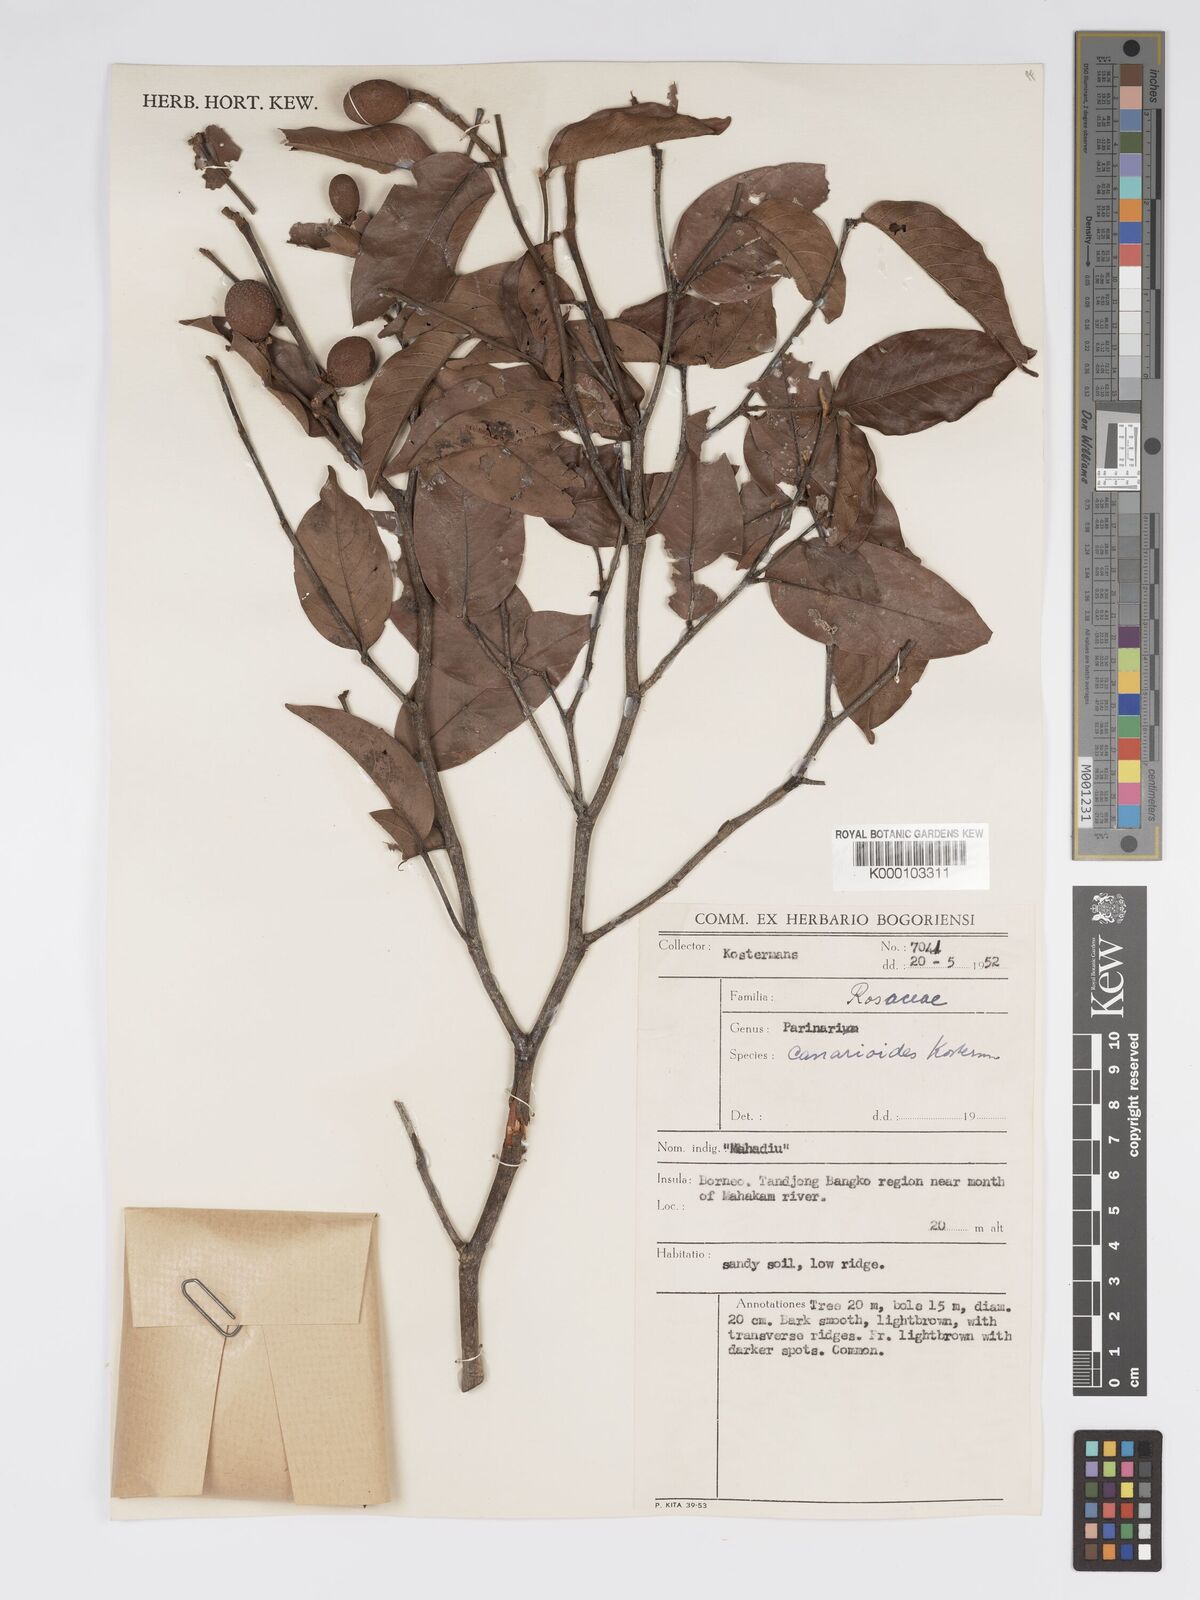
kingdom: Plantae
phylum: Tracheophyta
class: Magnoliopsida
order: Malpighiales
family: Chrysobalanaceae
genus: Parinari
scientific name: Parinari canarioides
